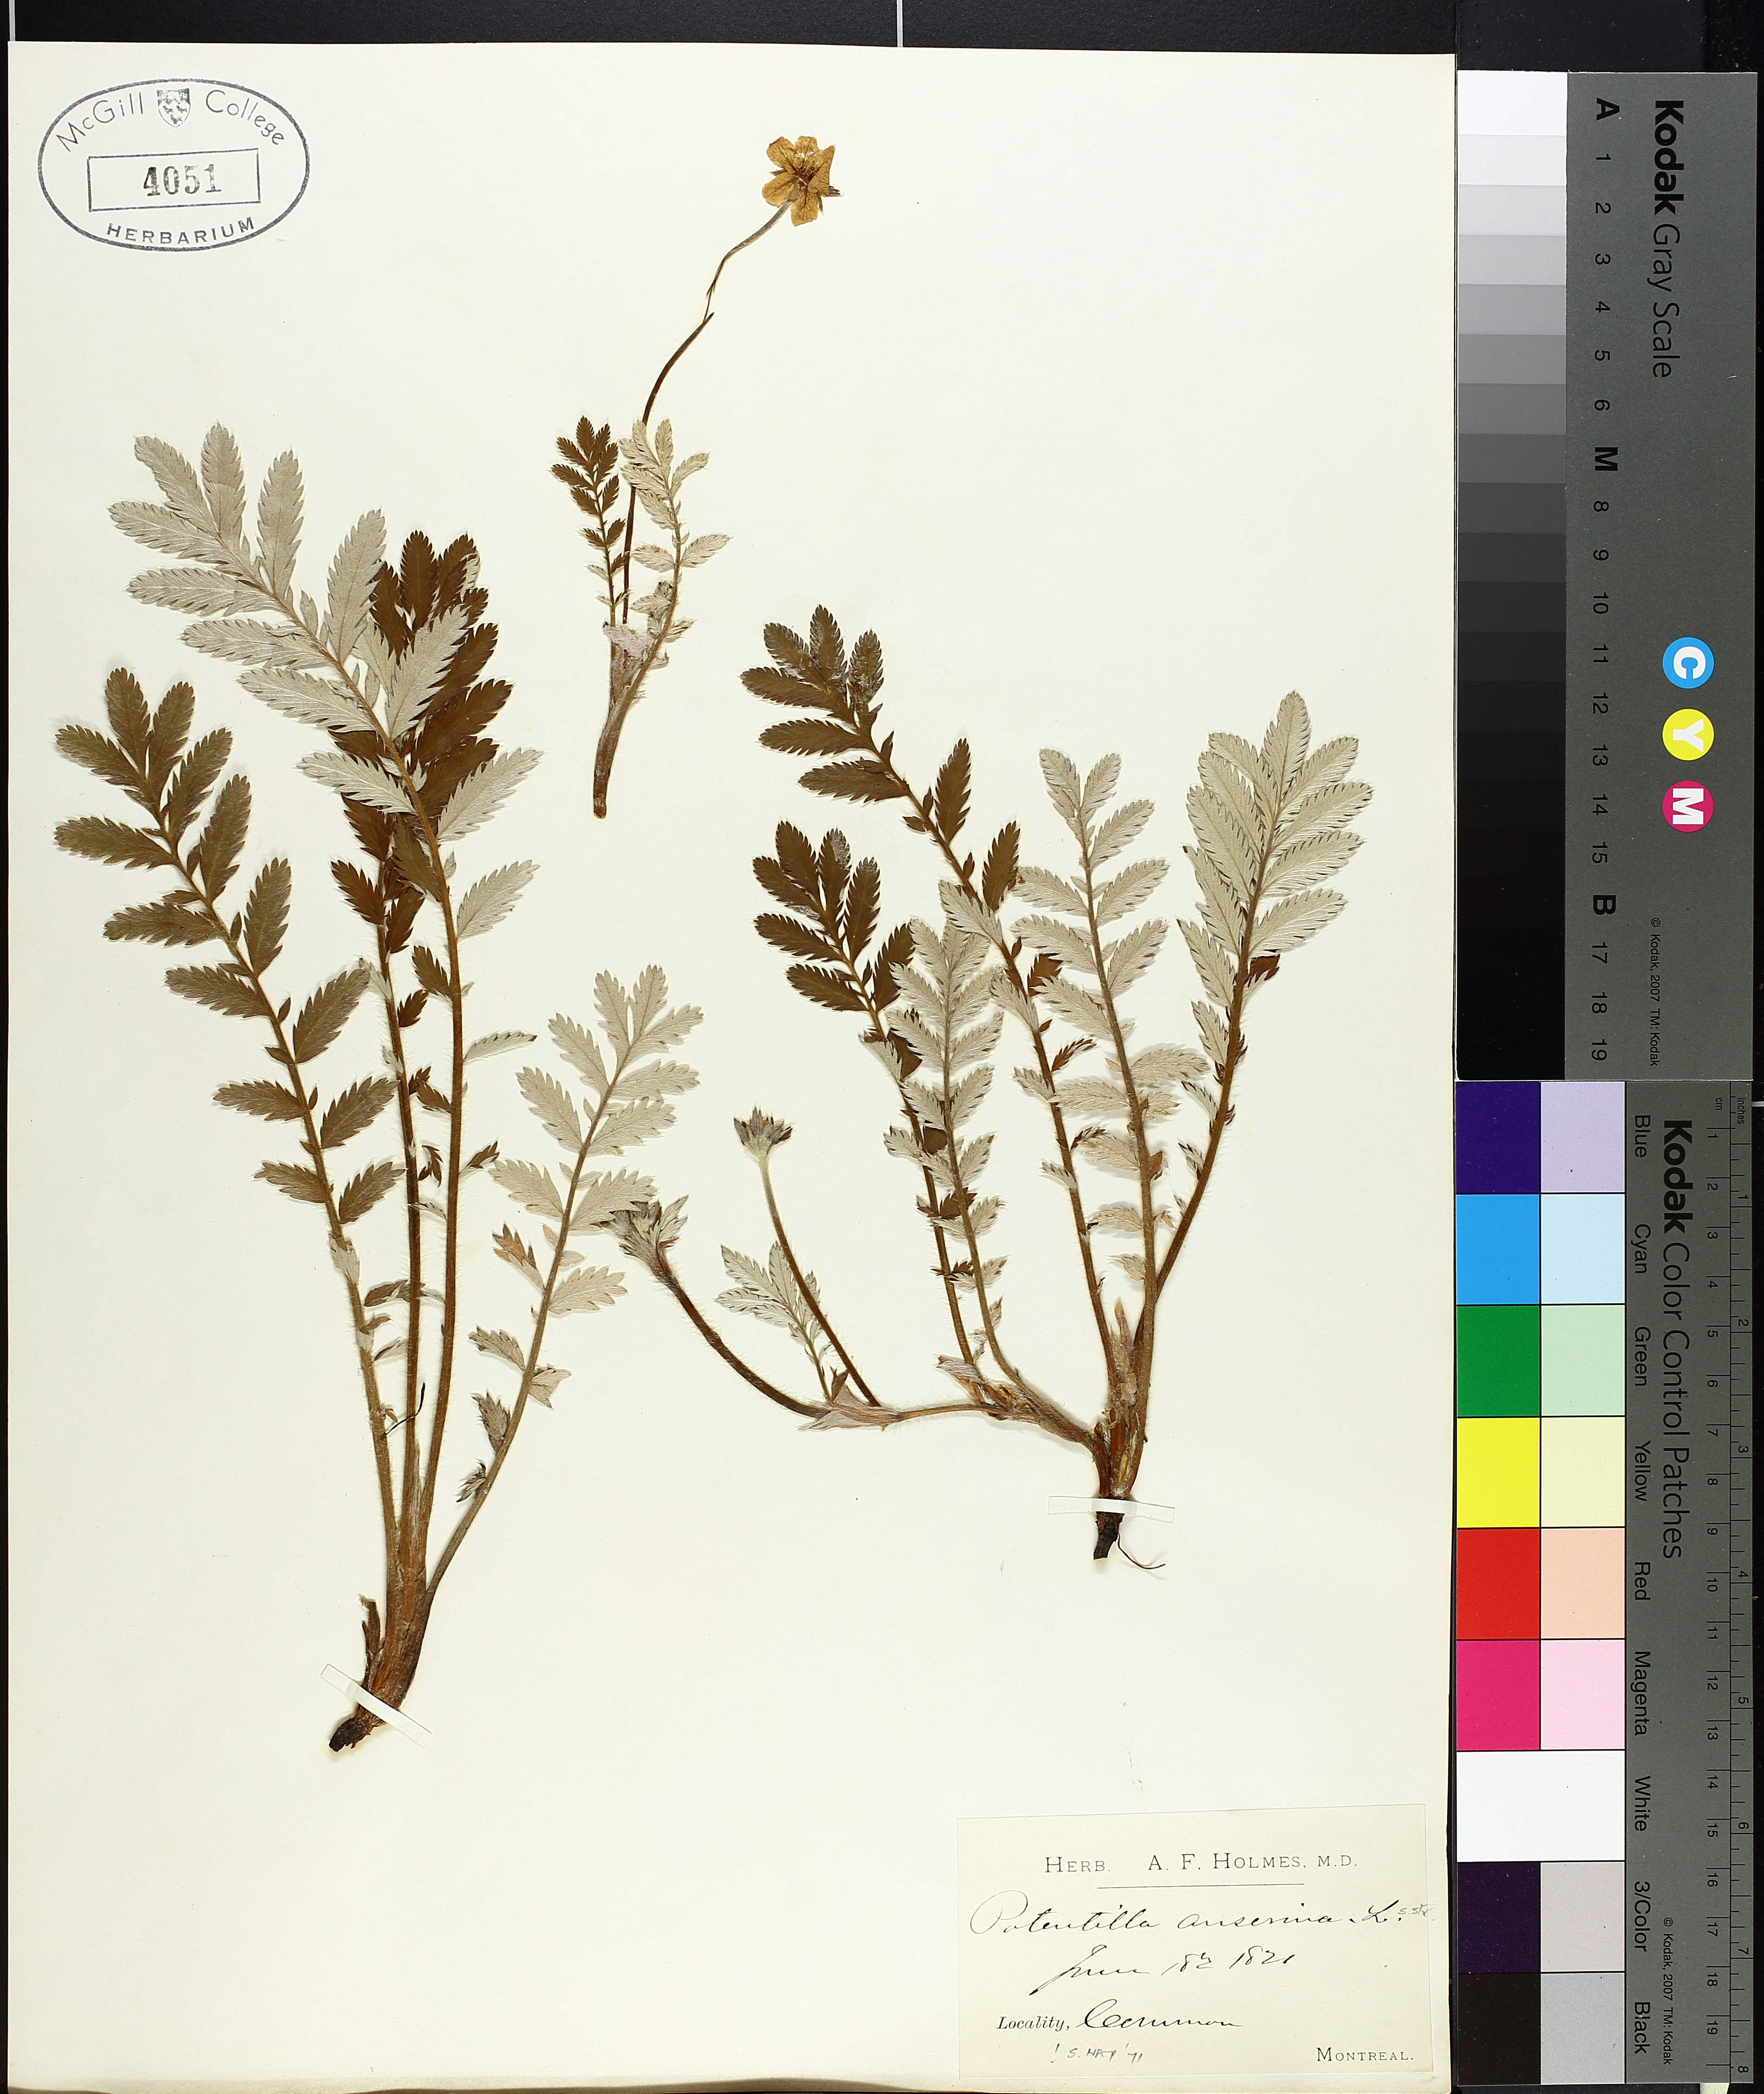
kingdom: Plantae
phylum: Tracheophyta
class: Magnoliopsida
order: Rosales
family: Rosaceae
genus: Argentina
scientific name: Argentina anserina
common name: Common silverweed
